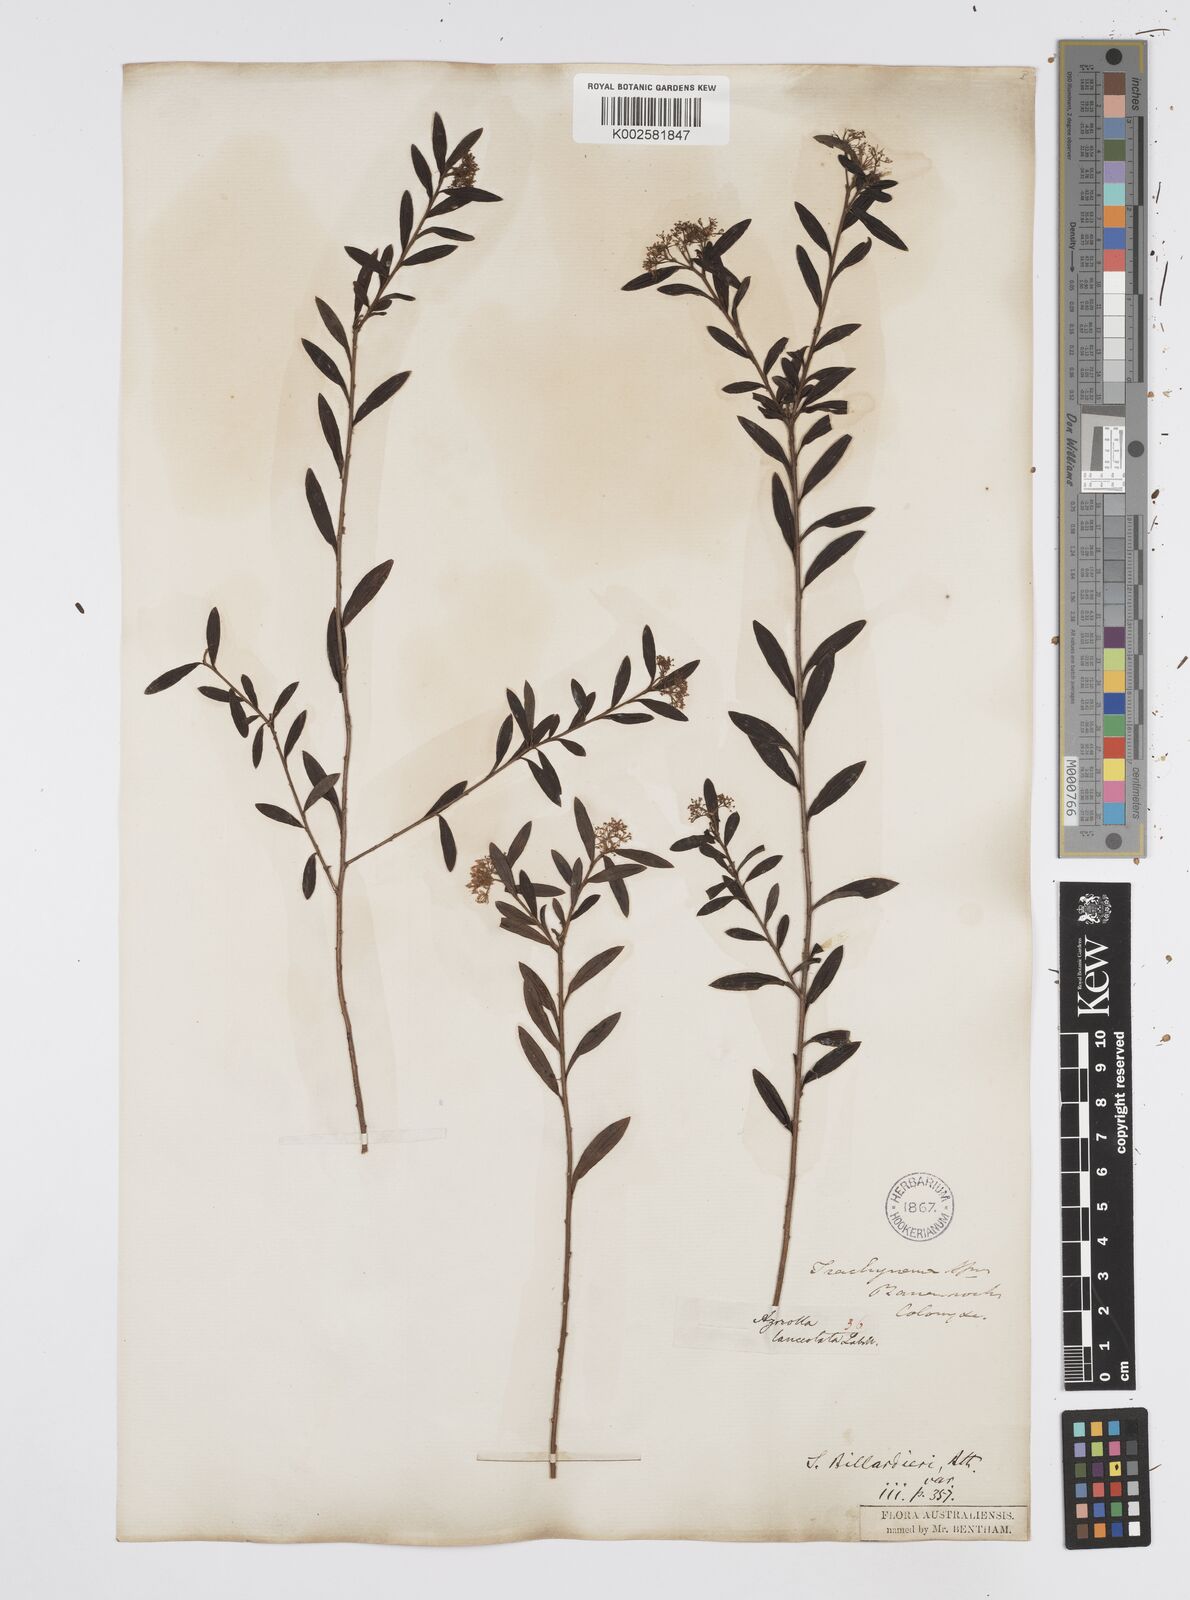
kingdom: Plantae
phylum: Tracheophyta
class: Magnoliopsida
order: Apiales
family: Apiaceae
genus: Platysace
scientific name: Platysace lanceolata
